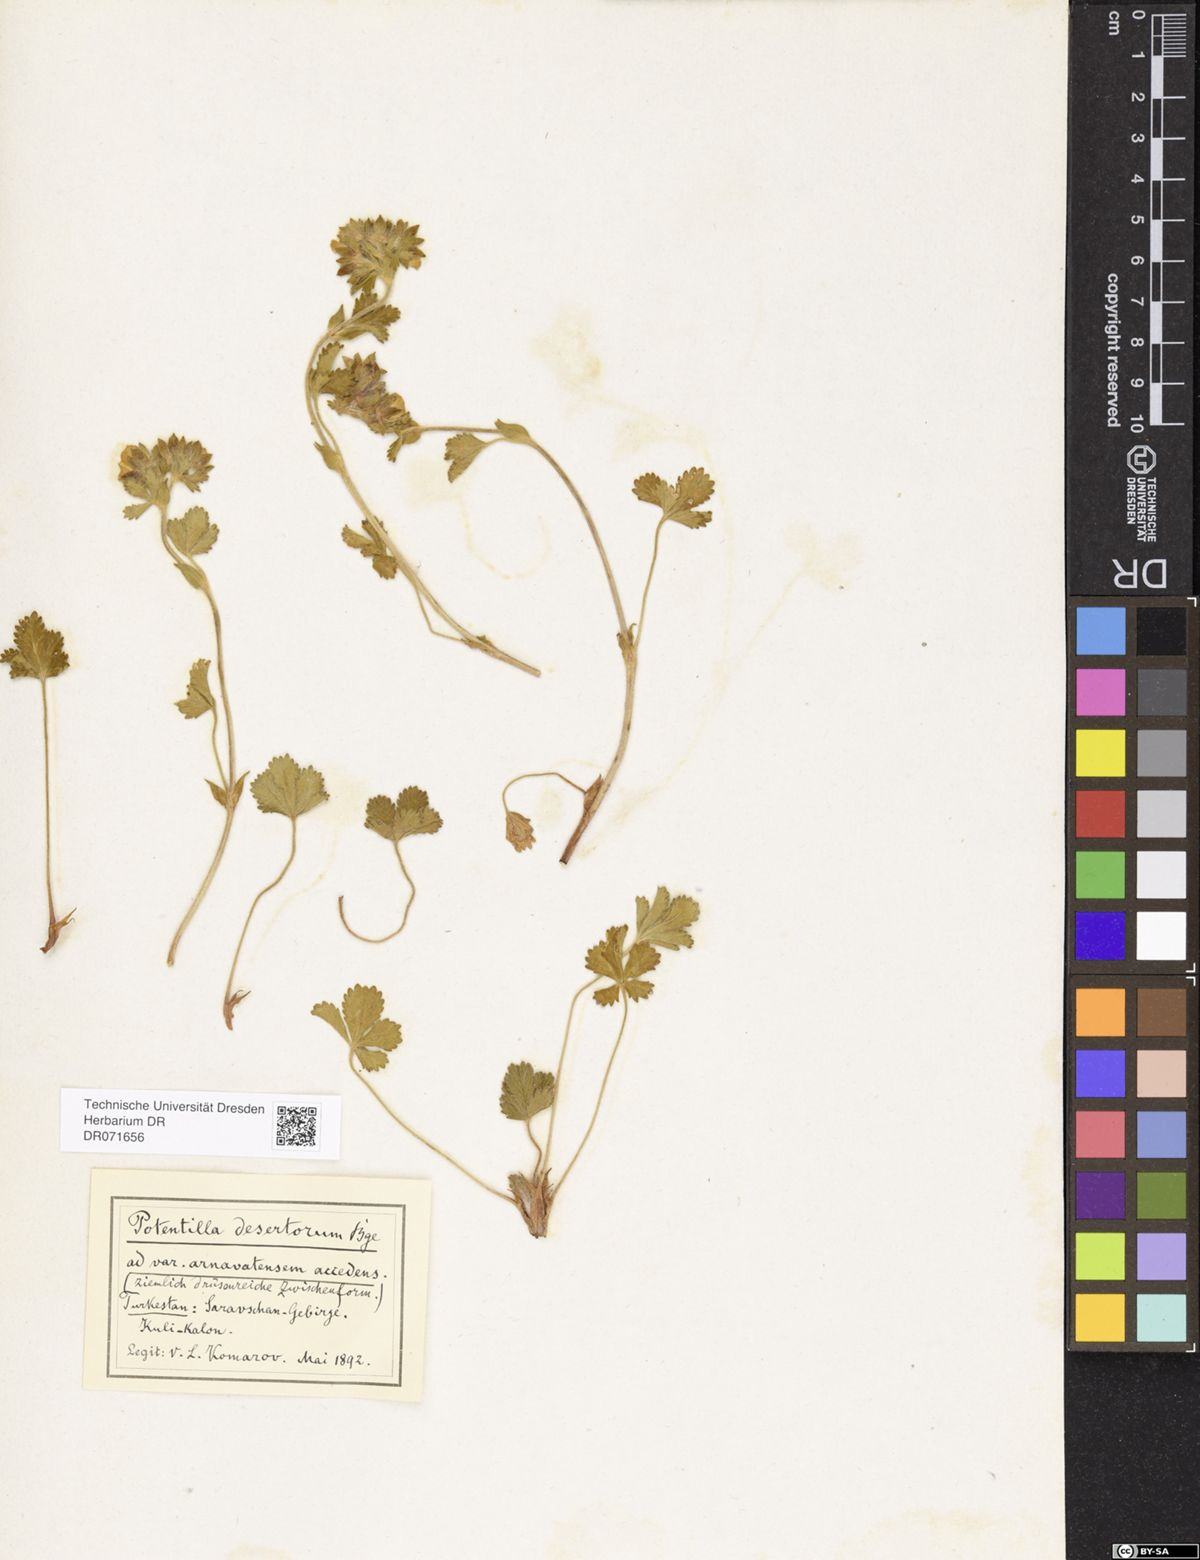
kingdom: Plantae
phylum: Tracheophyta
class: Magnoliopsida
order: Rosales
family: Rosaceae
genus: Potentilla
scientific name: Potentilla desertorum
